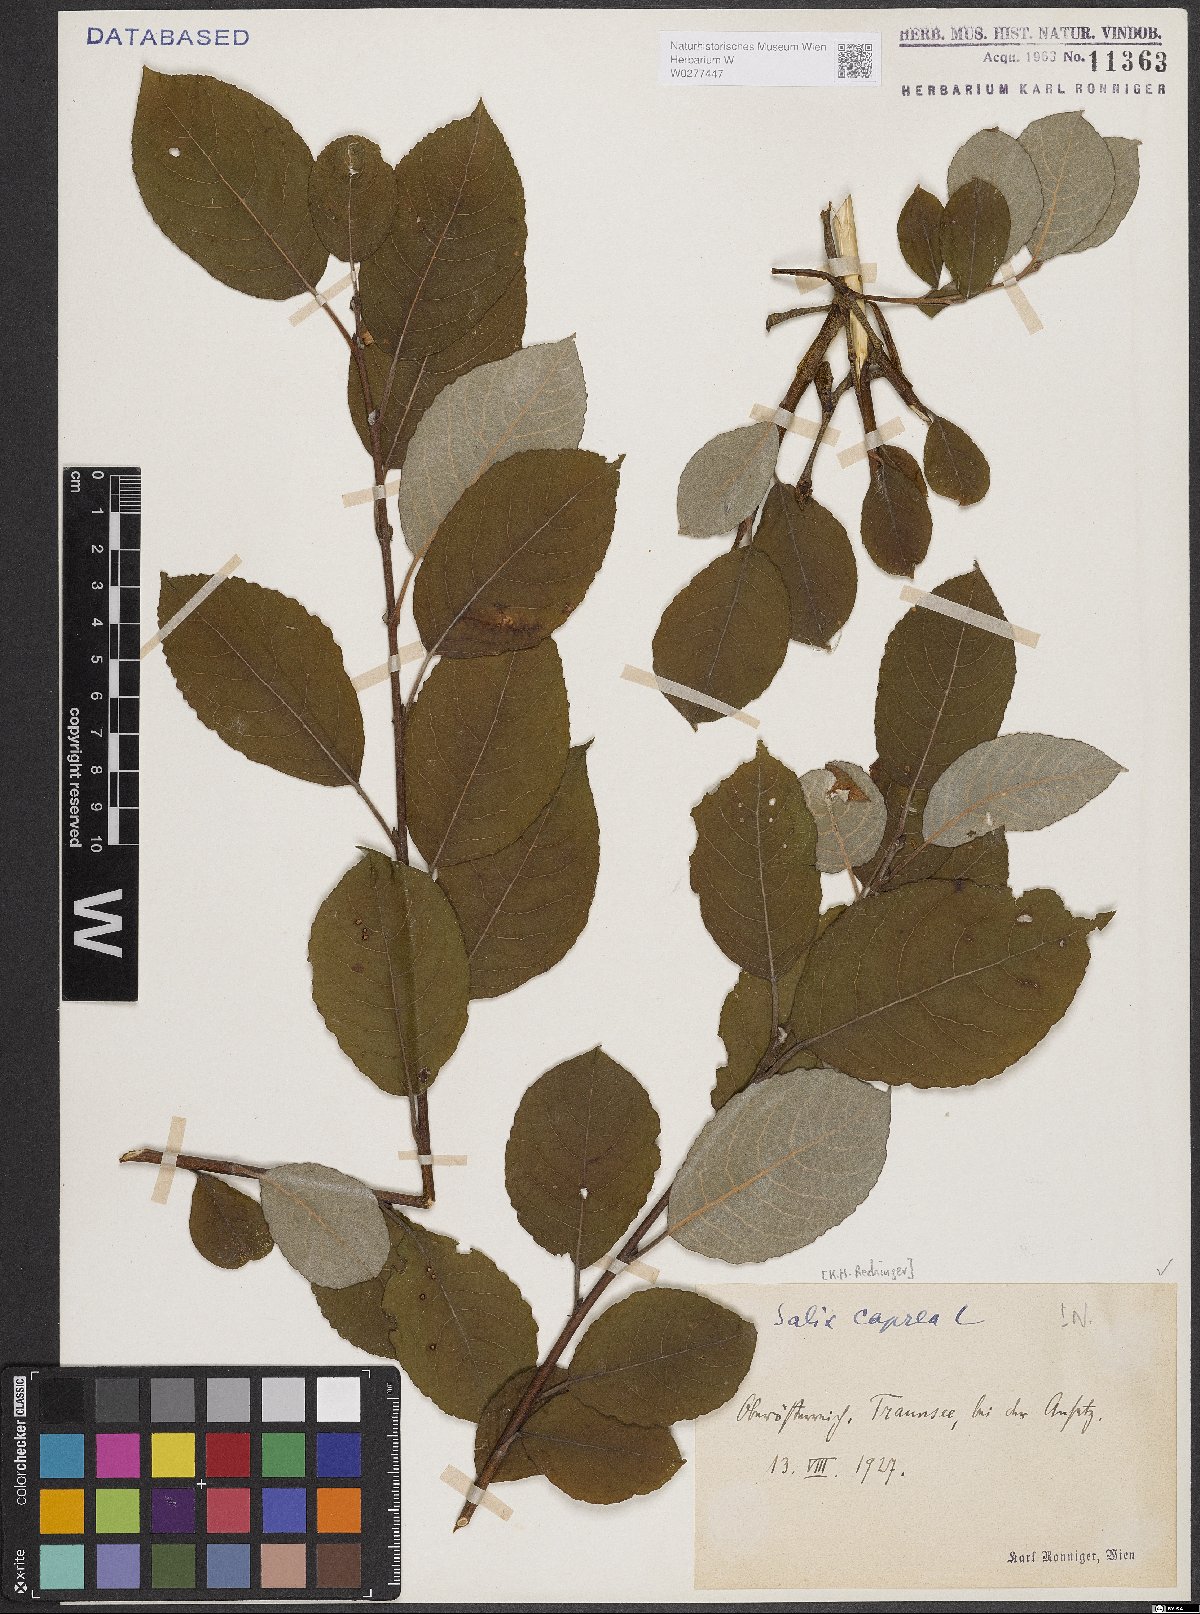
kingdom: Plantae
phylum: Tracheophyta
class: Magnoliopsida
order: Malpighiales
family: Salicaceae
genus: Salix
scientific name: Salix caprea
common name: Goat willow
